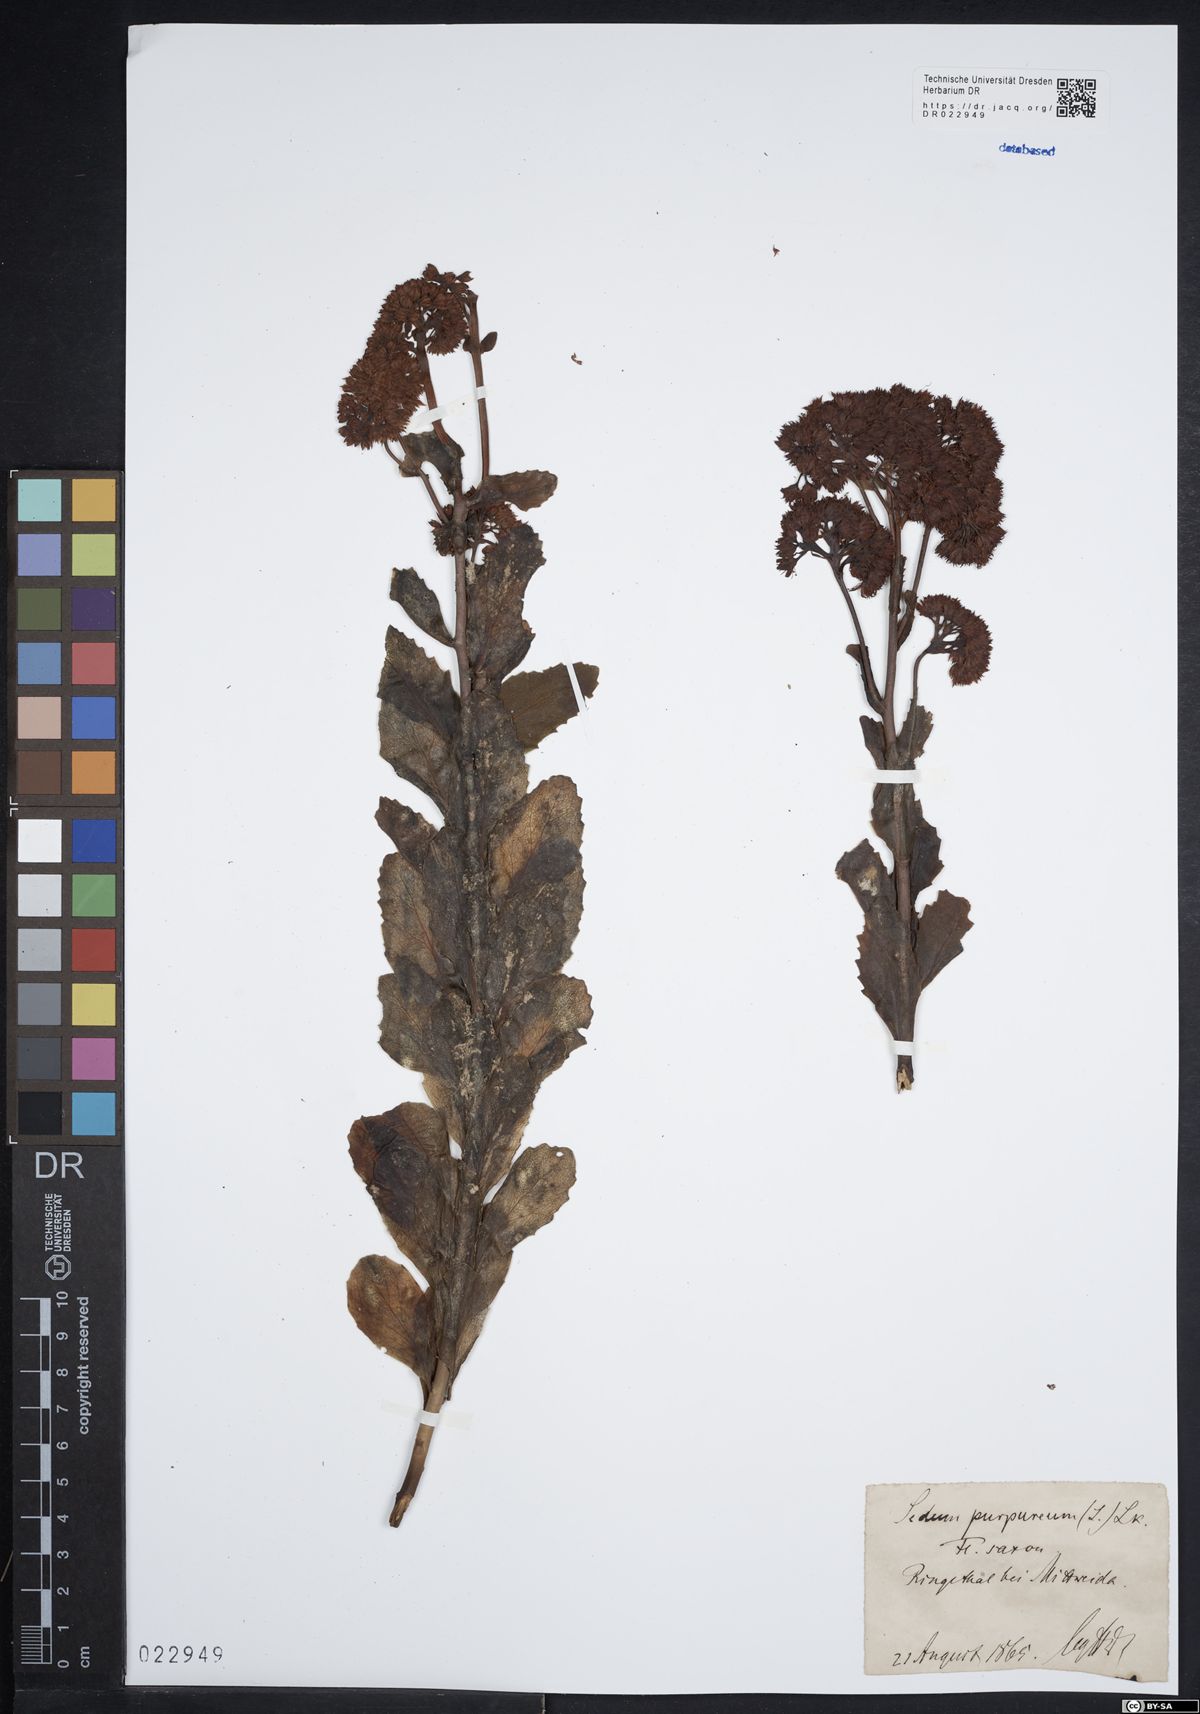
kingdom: Plantae
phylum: Tracheophyta
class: Magnoliopsida
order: Saxifragales
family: Crassulaceae
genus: Hylotelephium
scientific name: Hylotelephium telephium
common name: Live-forever
